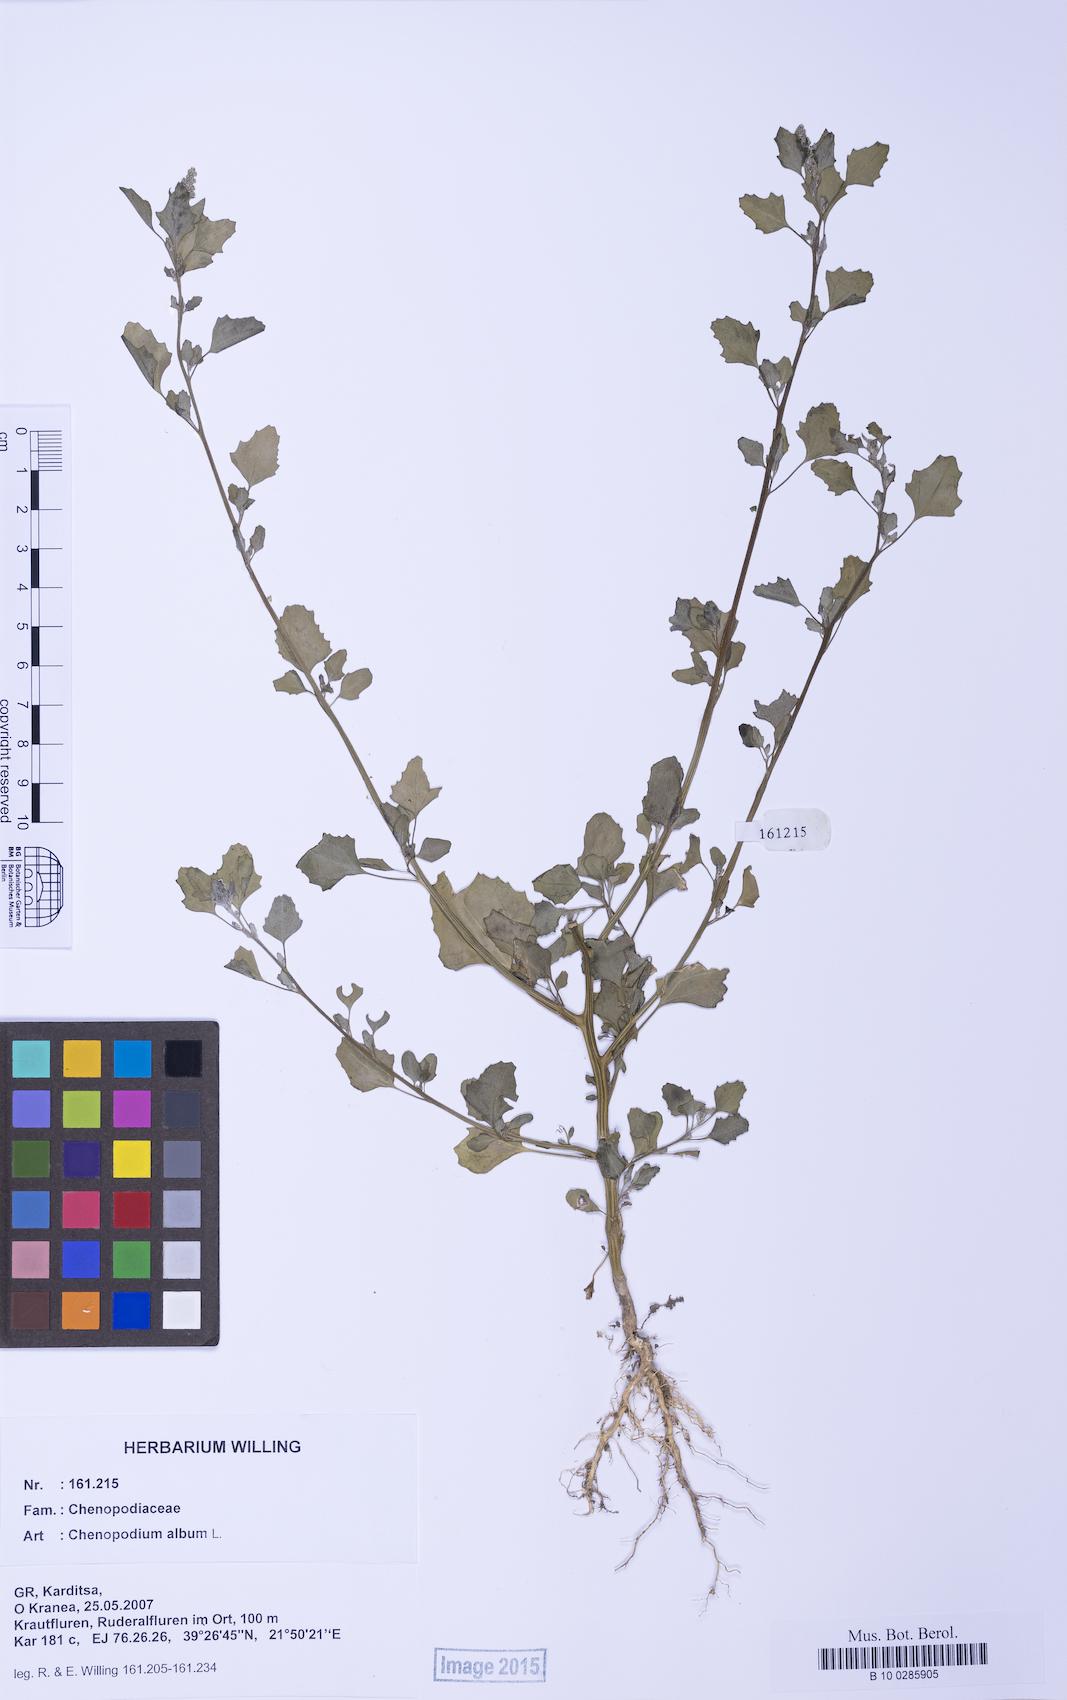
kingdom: Plantae
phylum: Tracheophyta
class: Magnoliopsida
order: Caryophyllales
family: Amaranthaceae
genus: Chenopodium
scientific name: Chenopodium album
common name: Fat-hen
